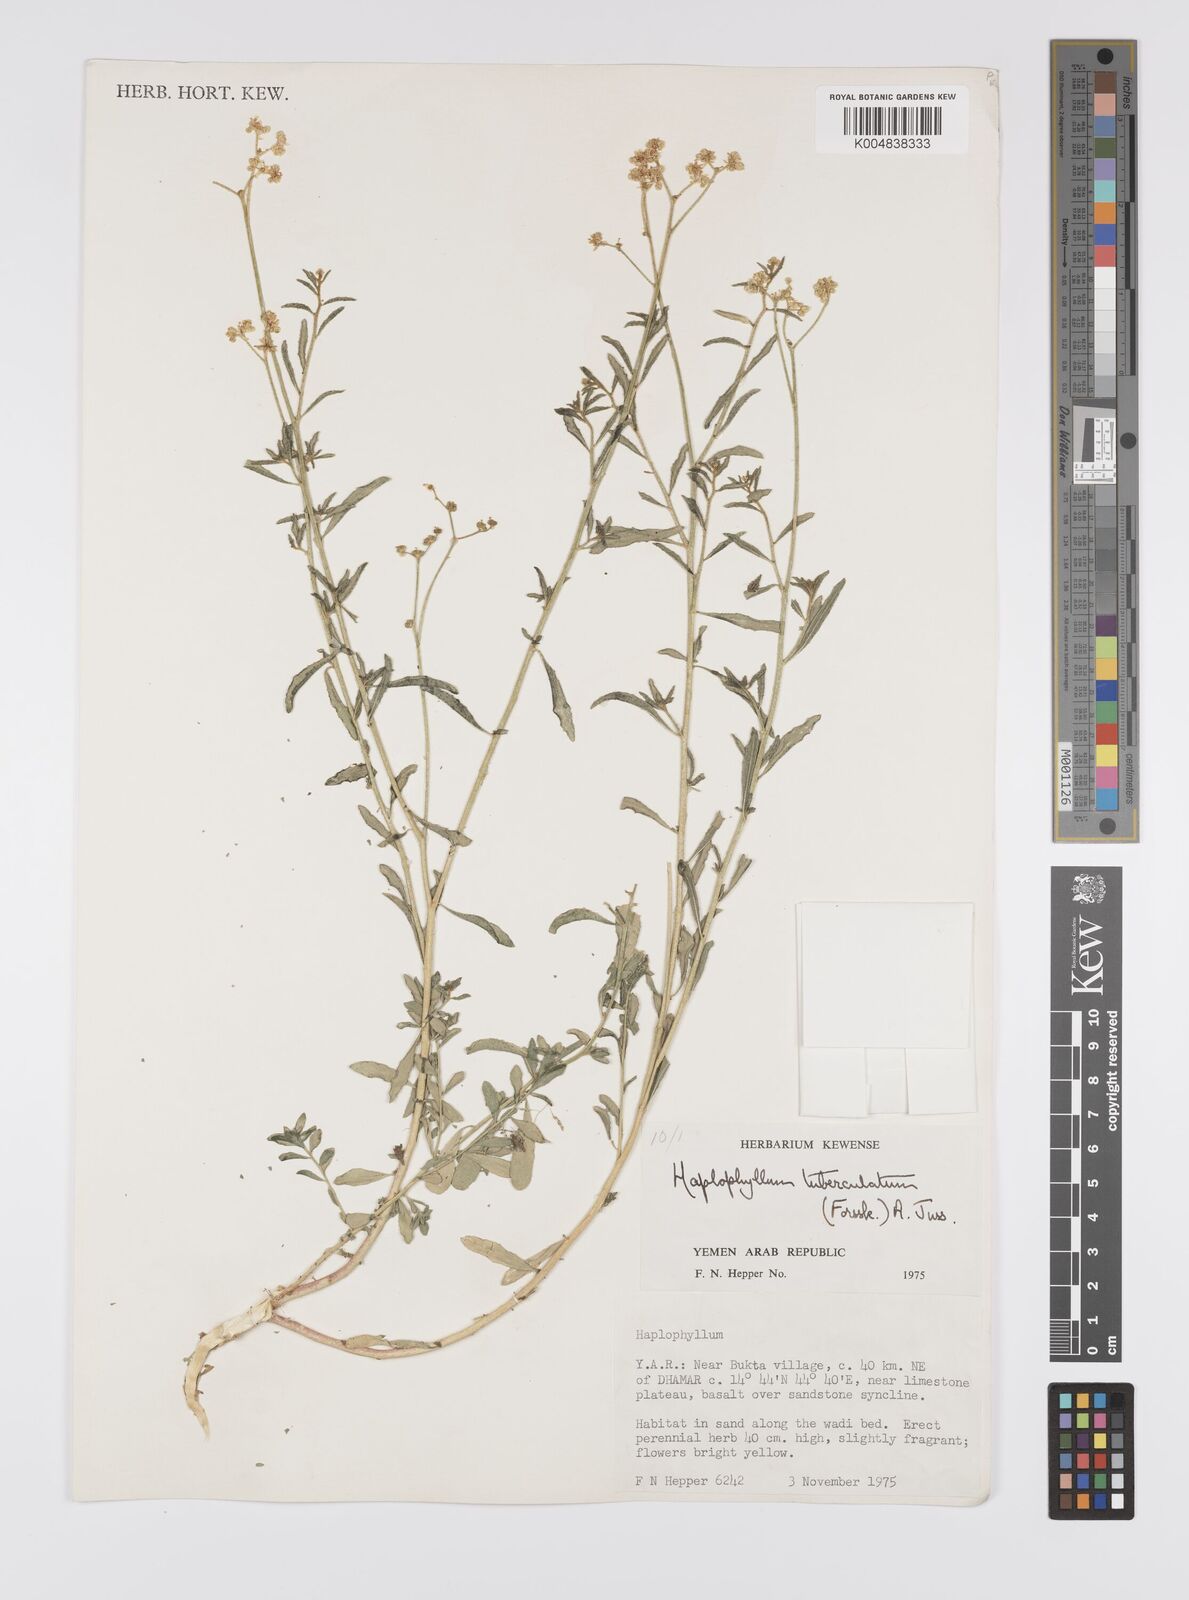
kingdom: Plantae
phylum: Tracheophyta
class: Magnoliopsida
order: Sapindales
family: Rutaceae
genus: Haplophyllum
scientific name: Haplophyllum tuberculatum
